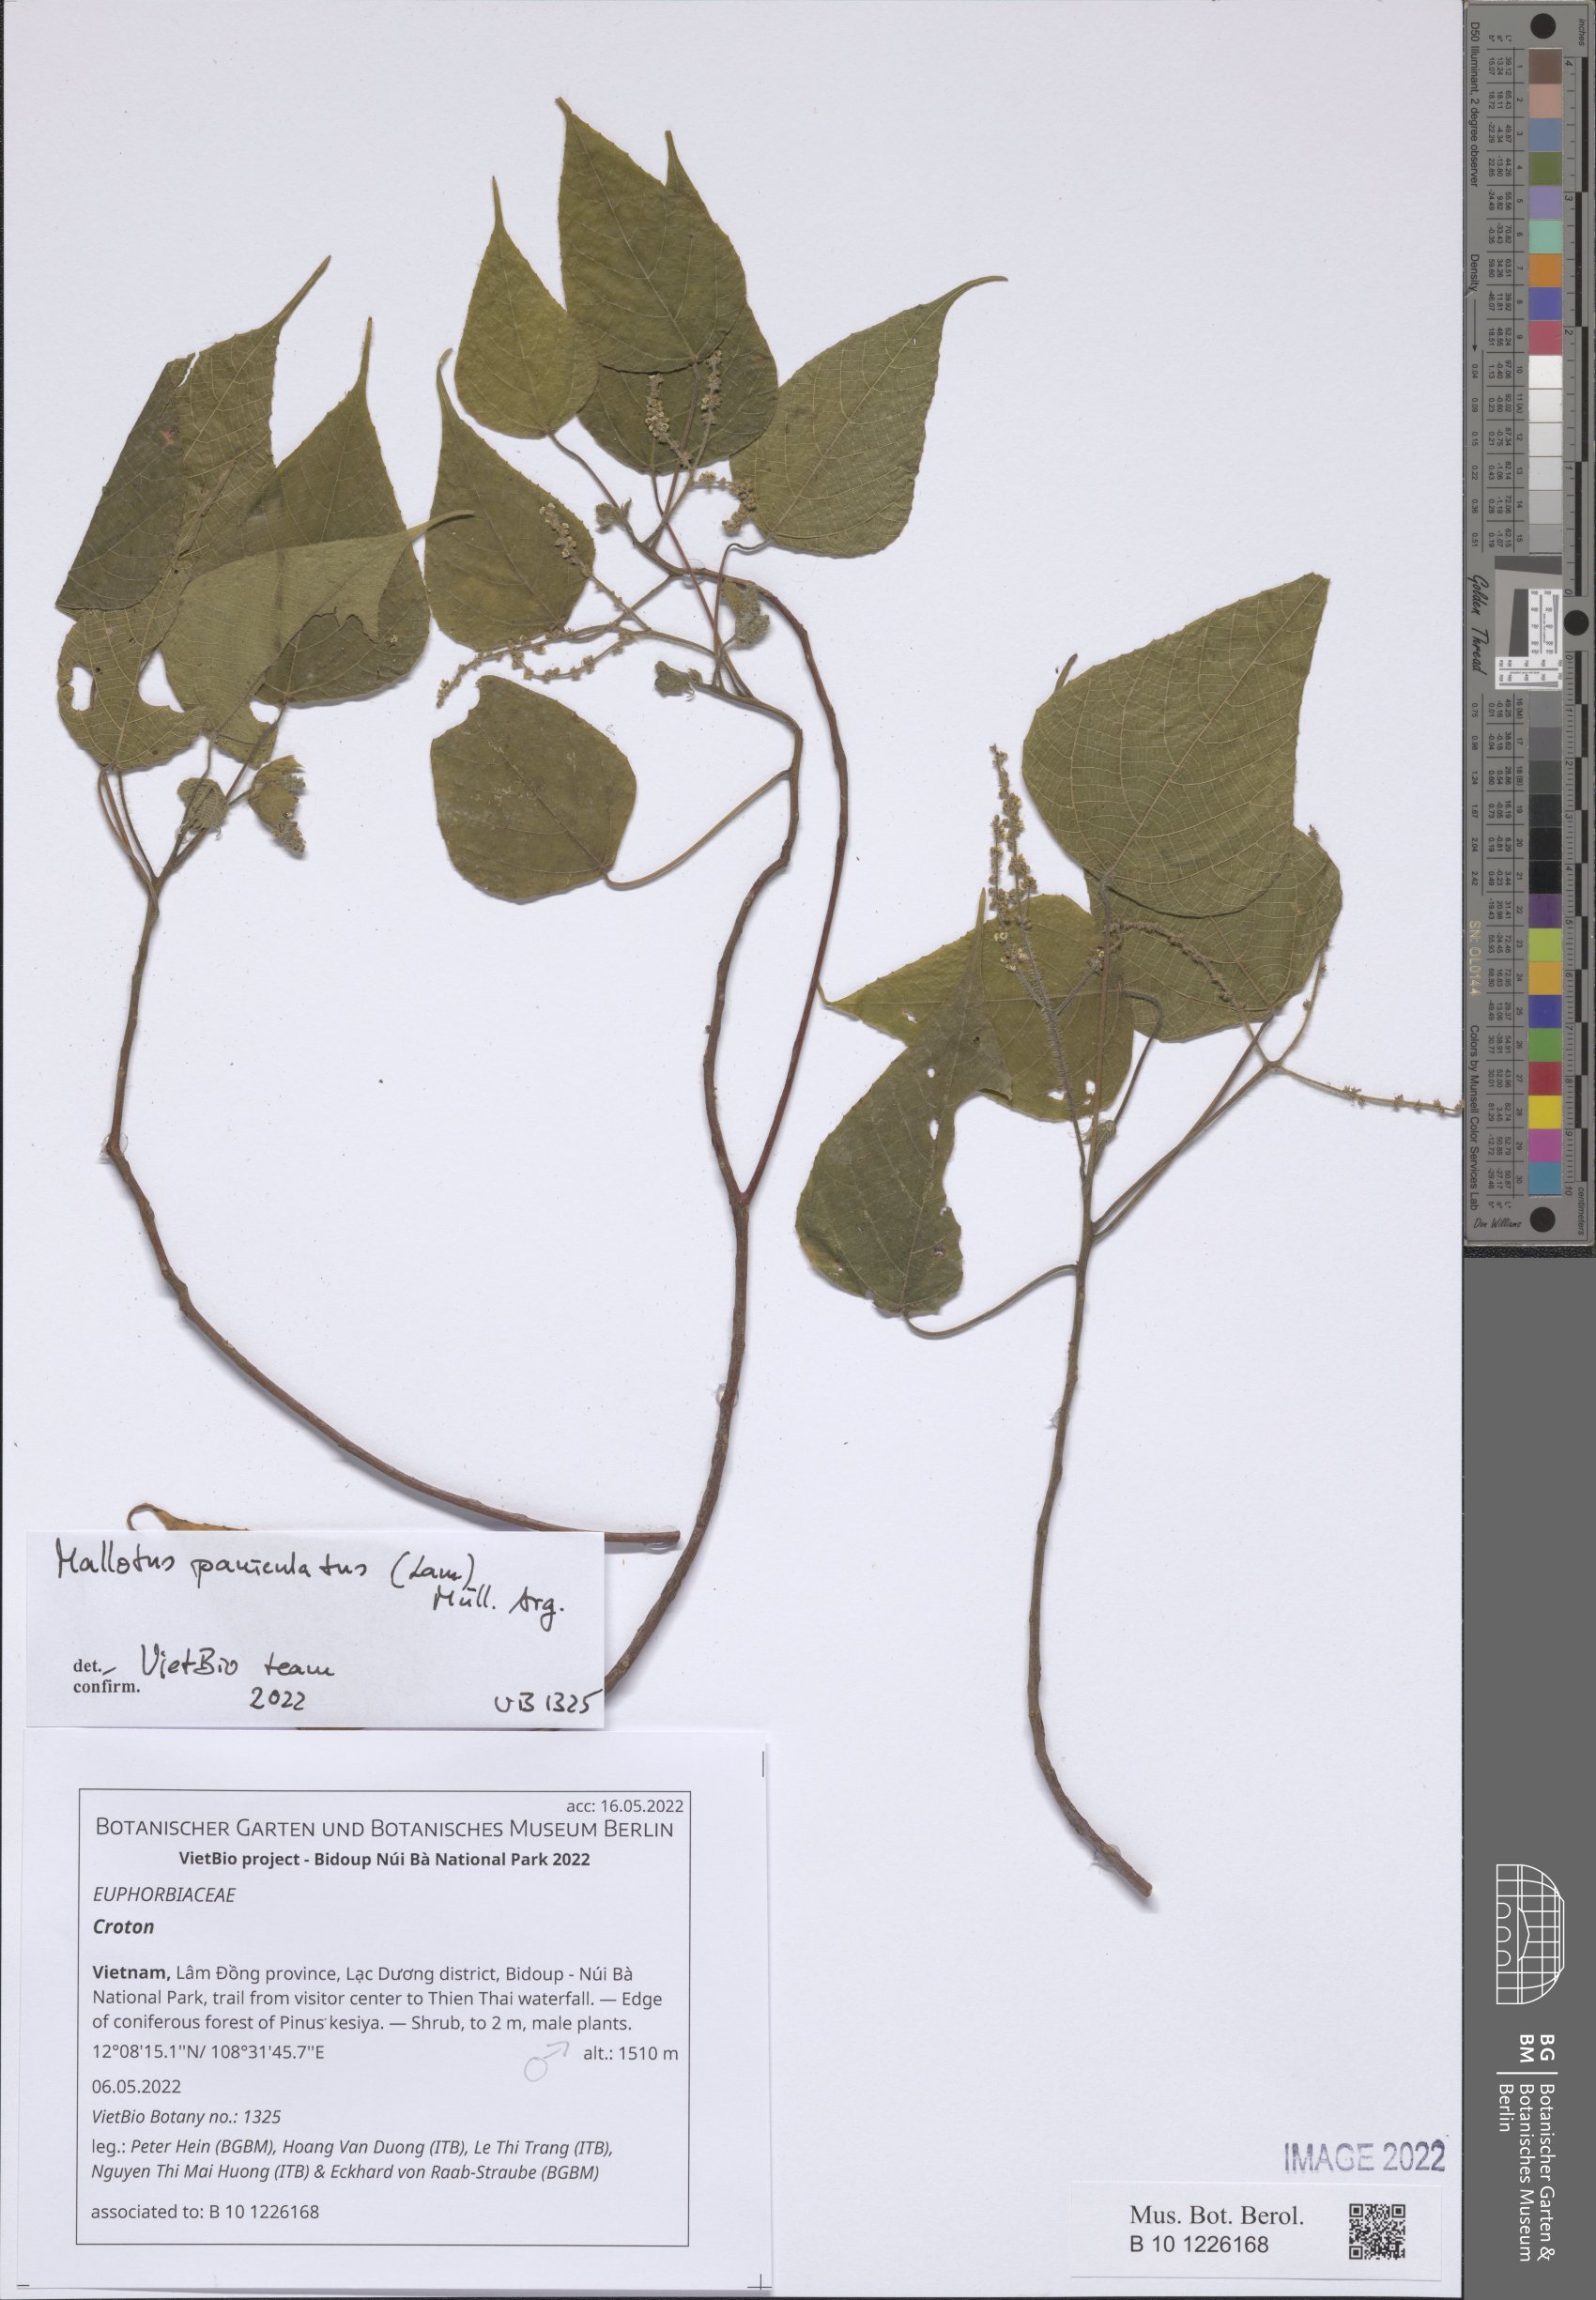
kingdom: Plantae
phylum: Tracheophyta
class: Magnoliopsida
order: Malpighiales
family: Euphorbiaceae
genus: Croton
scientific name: Croton
